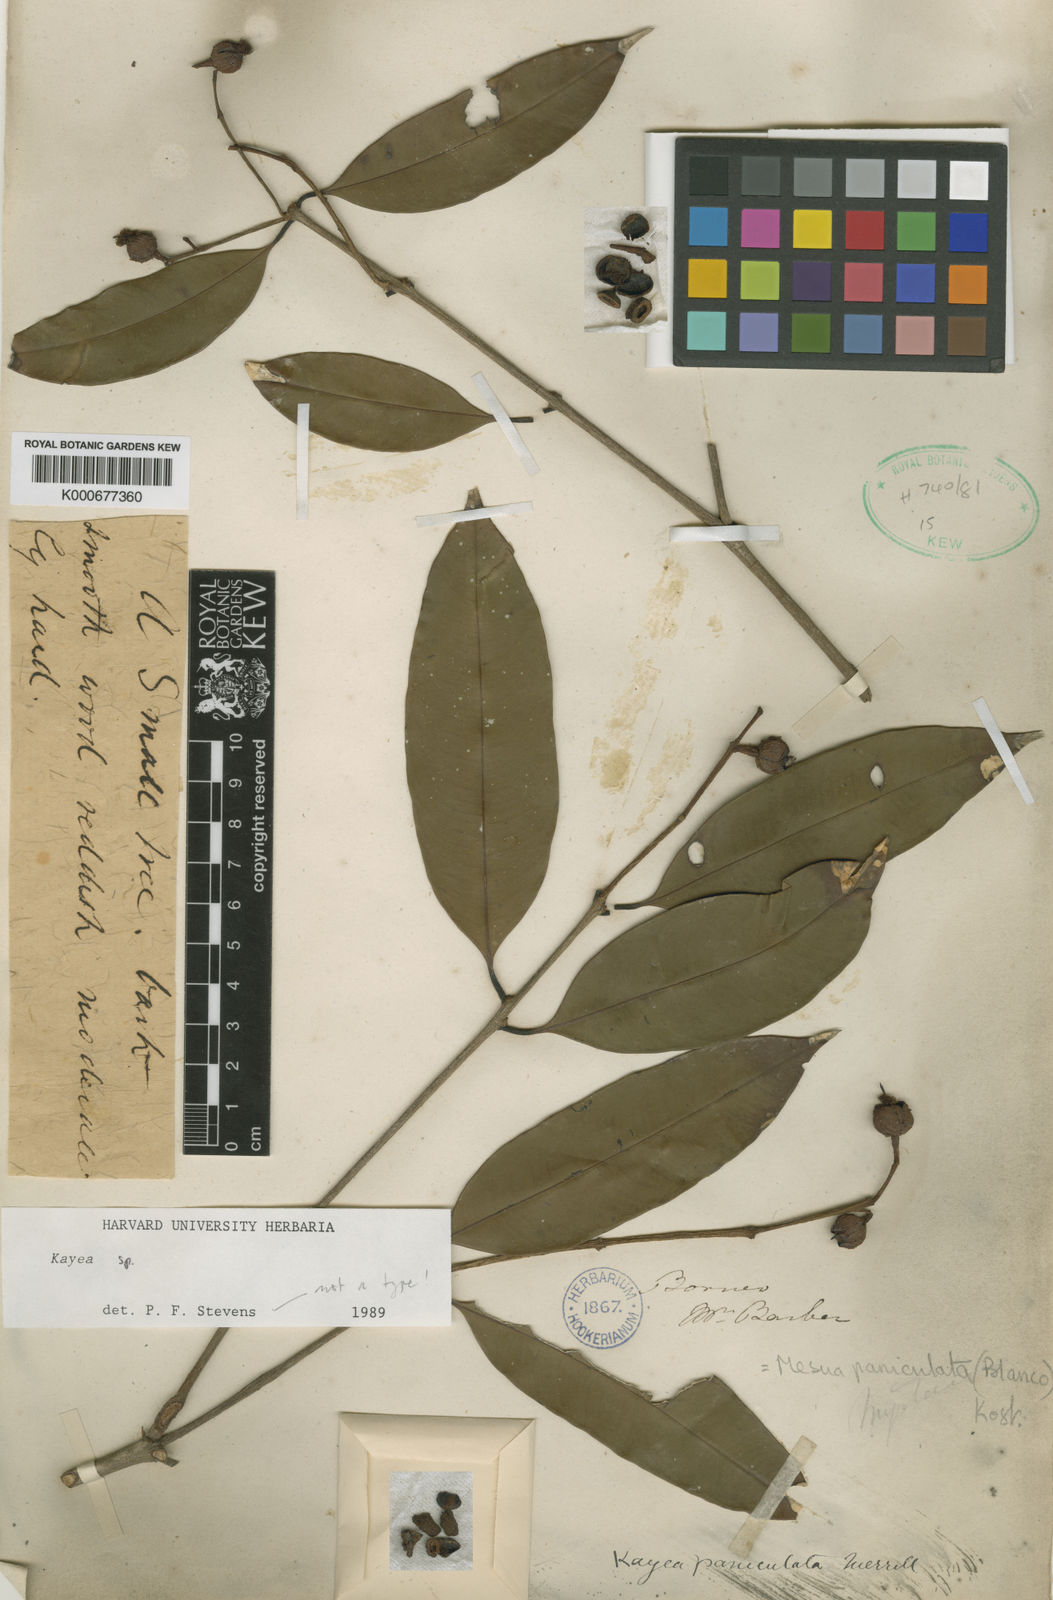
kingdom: Plantae
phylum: Tracheophyta
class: Magnoliopsida
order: Malpighiales
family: Calophyllaceae
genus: Kayea
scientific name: Kayea
